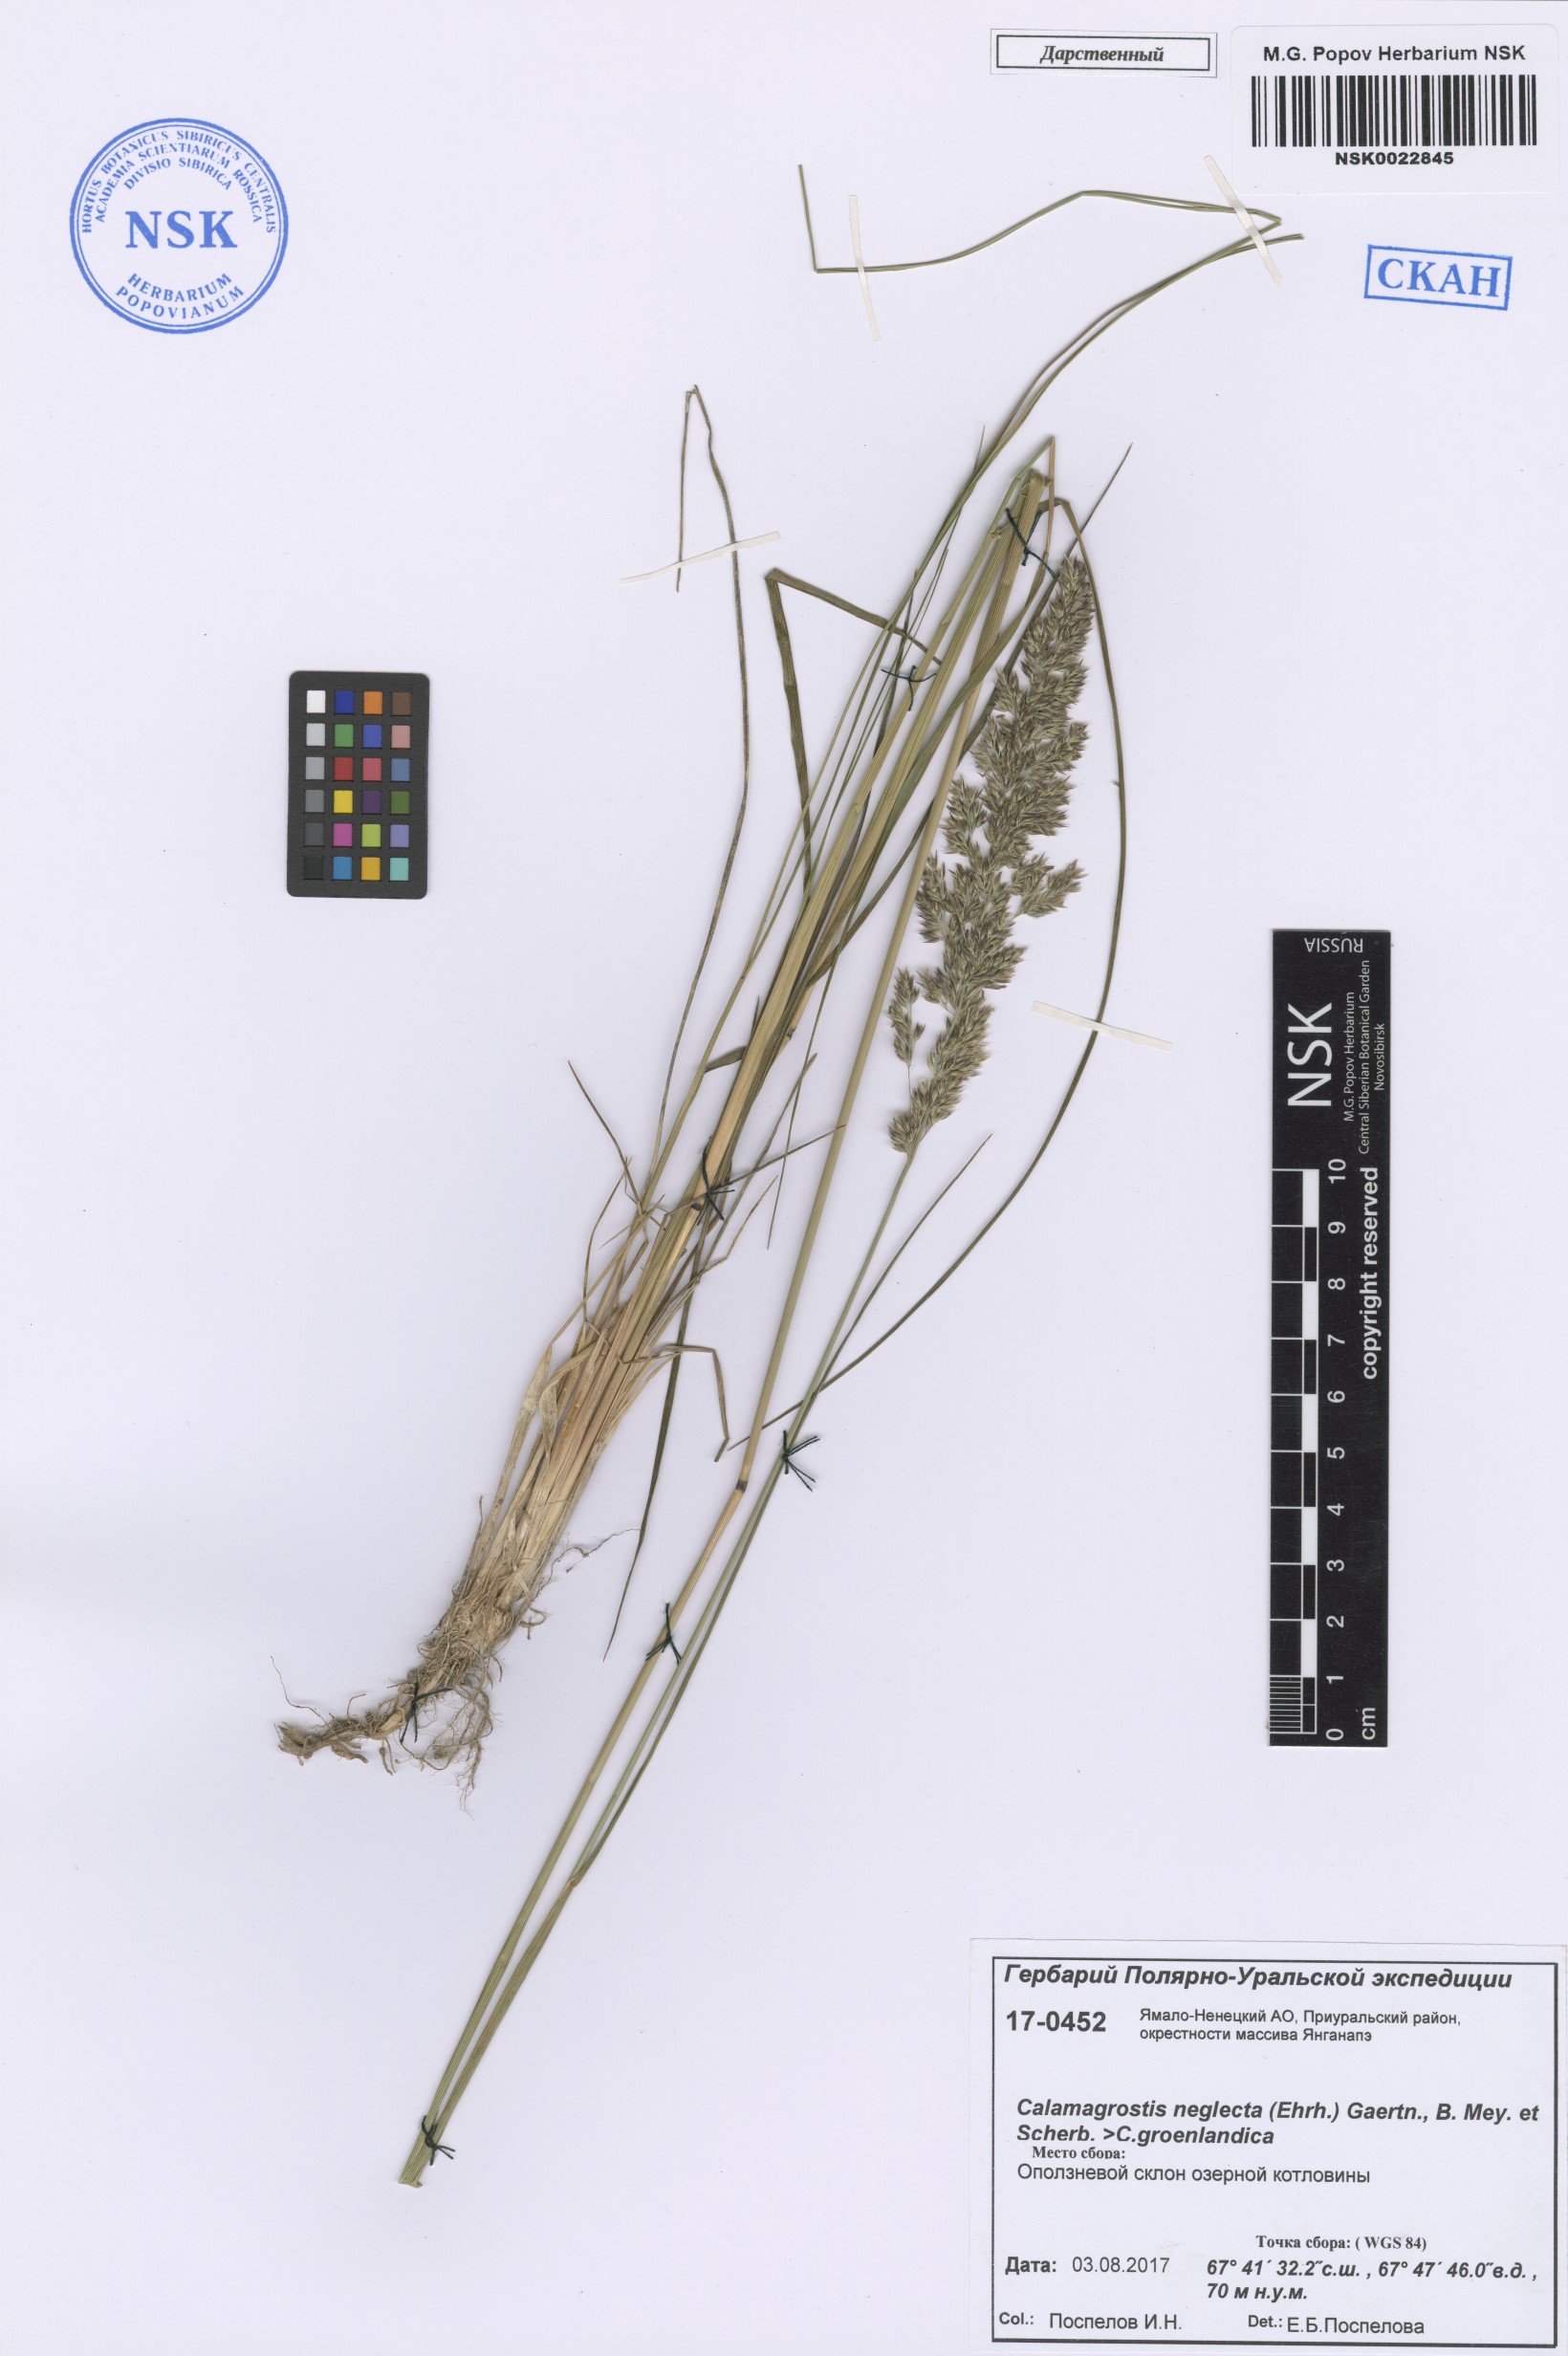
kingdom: Plantae
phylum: Tracheophyta
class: Liliopsida
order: Poales
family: Poaceae
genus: Achnatherum
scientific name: Achnatherum calamagrostis
